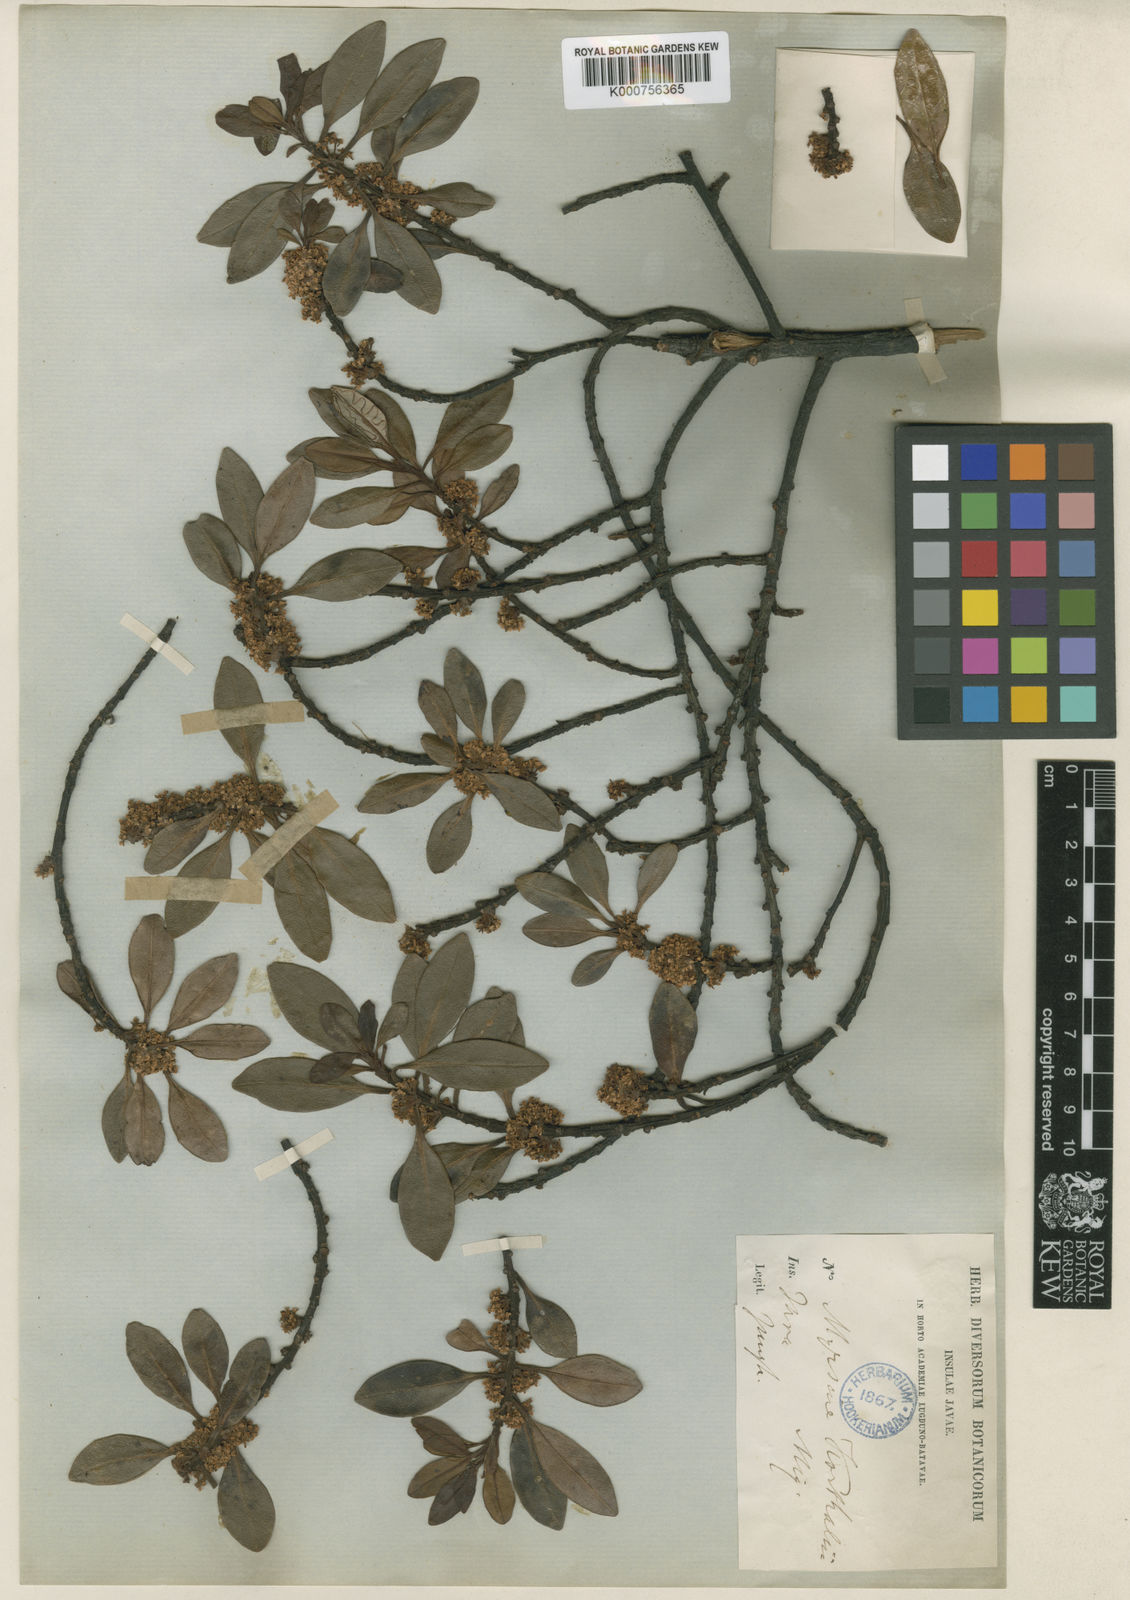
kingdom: Plantae
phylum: Tracheophyta
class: Magnoliopsida
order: Ericales
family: Primulaceae
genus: Myrsine
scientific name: Myrsine korthalsii
